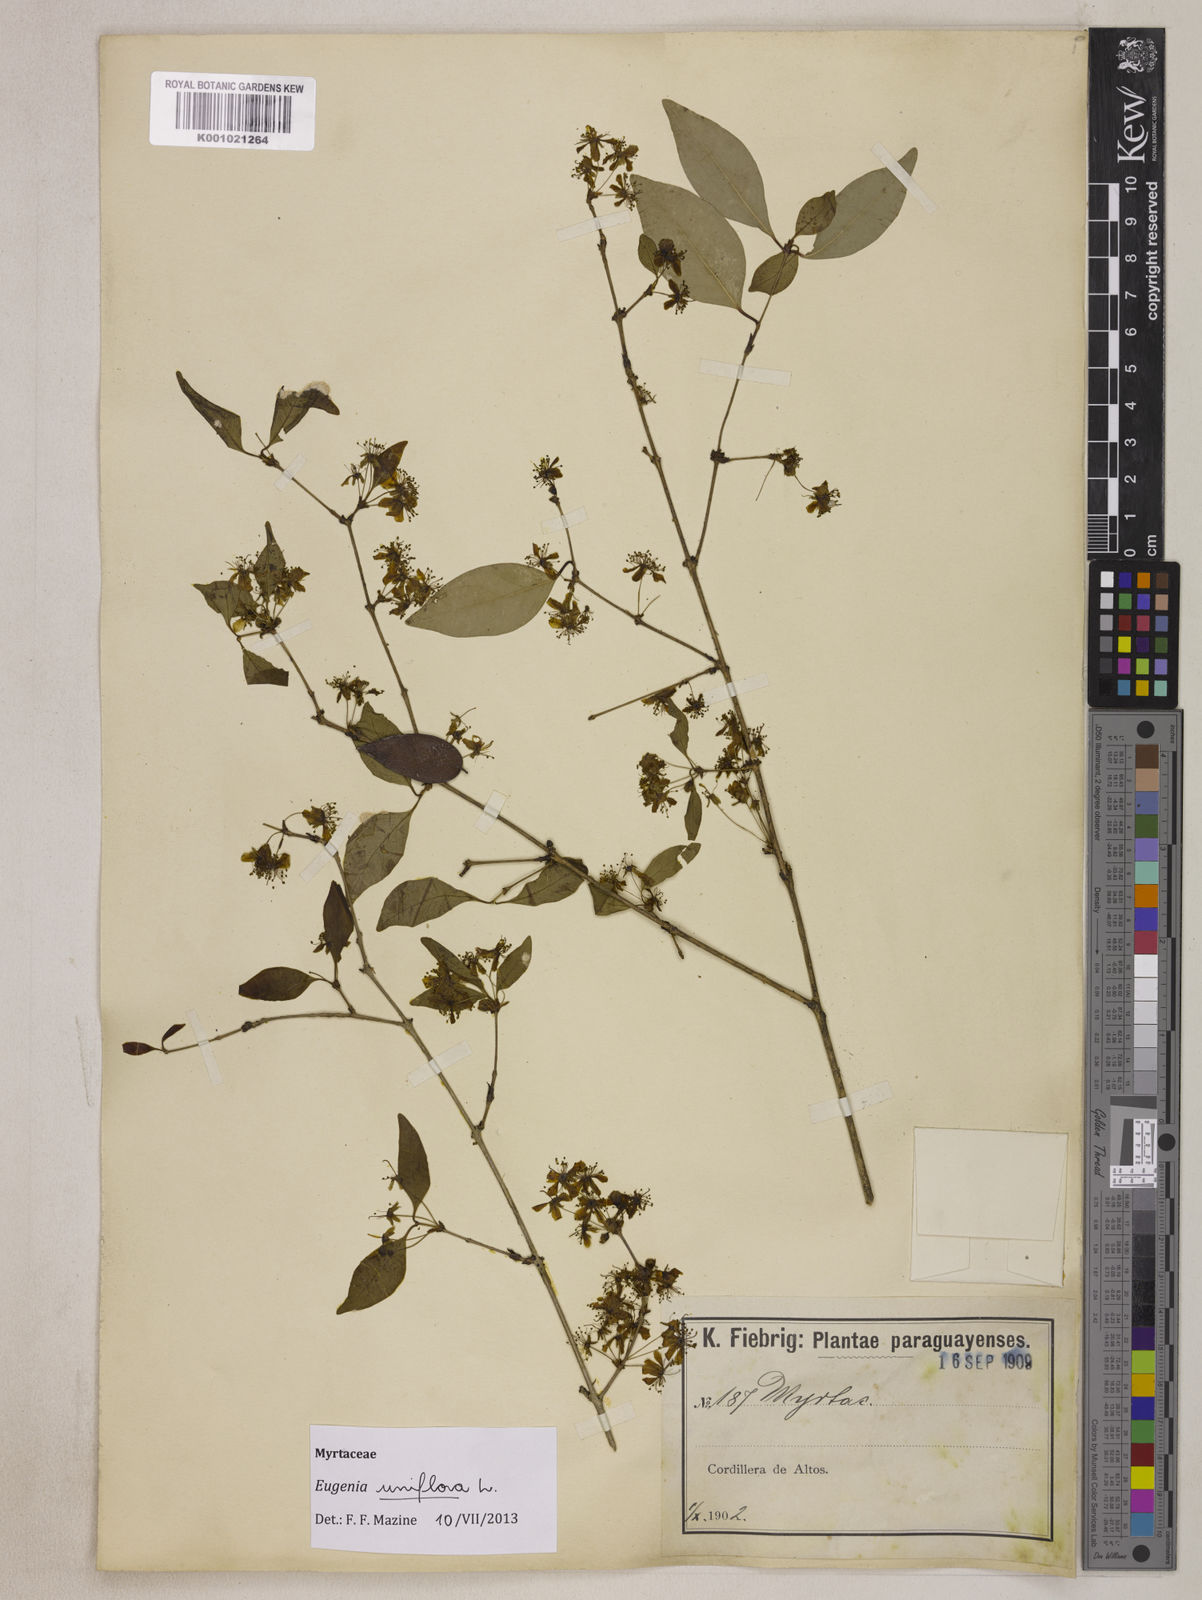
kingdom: Plantae
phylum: Tracheophyta
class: Magnoliopsida
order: Myrtales
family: Myrtaceae
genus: Eugenia
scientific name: Eugenia uniflora
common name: Surinam cherry
